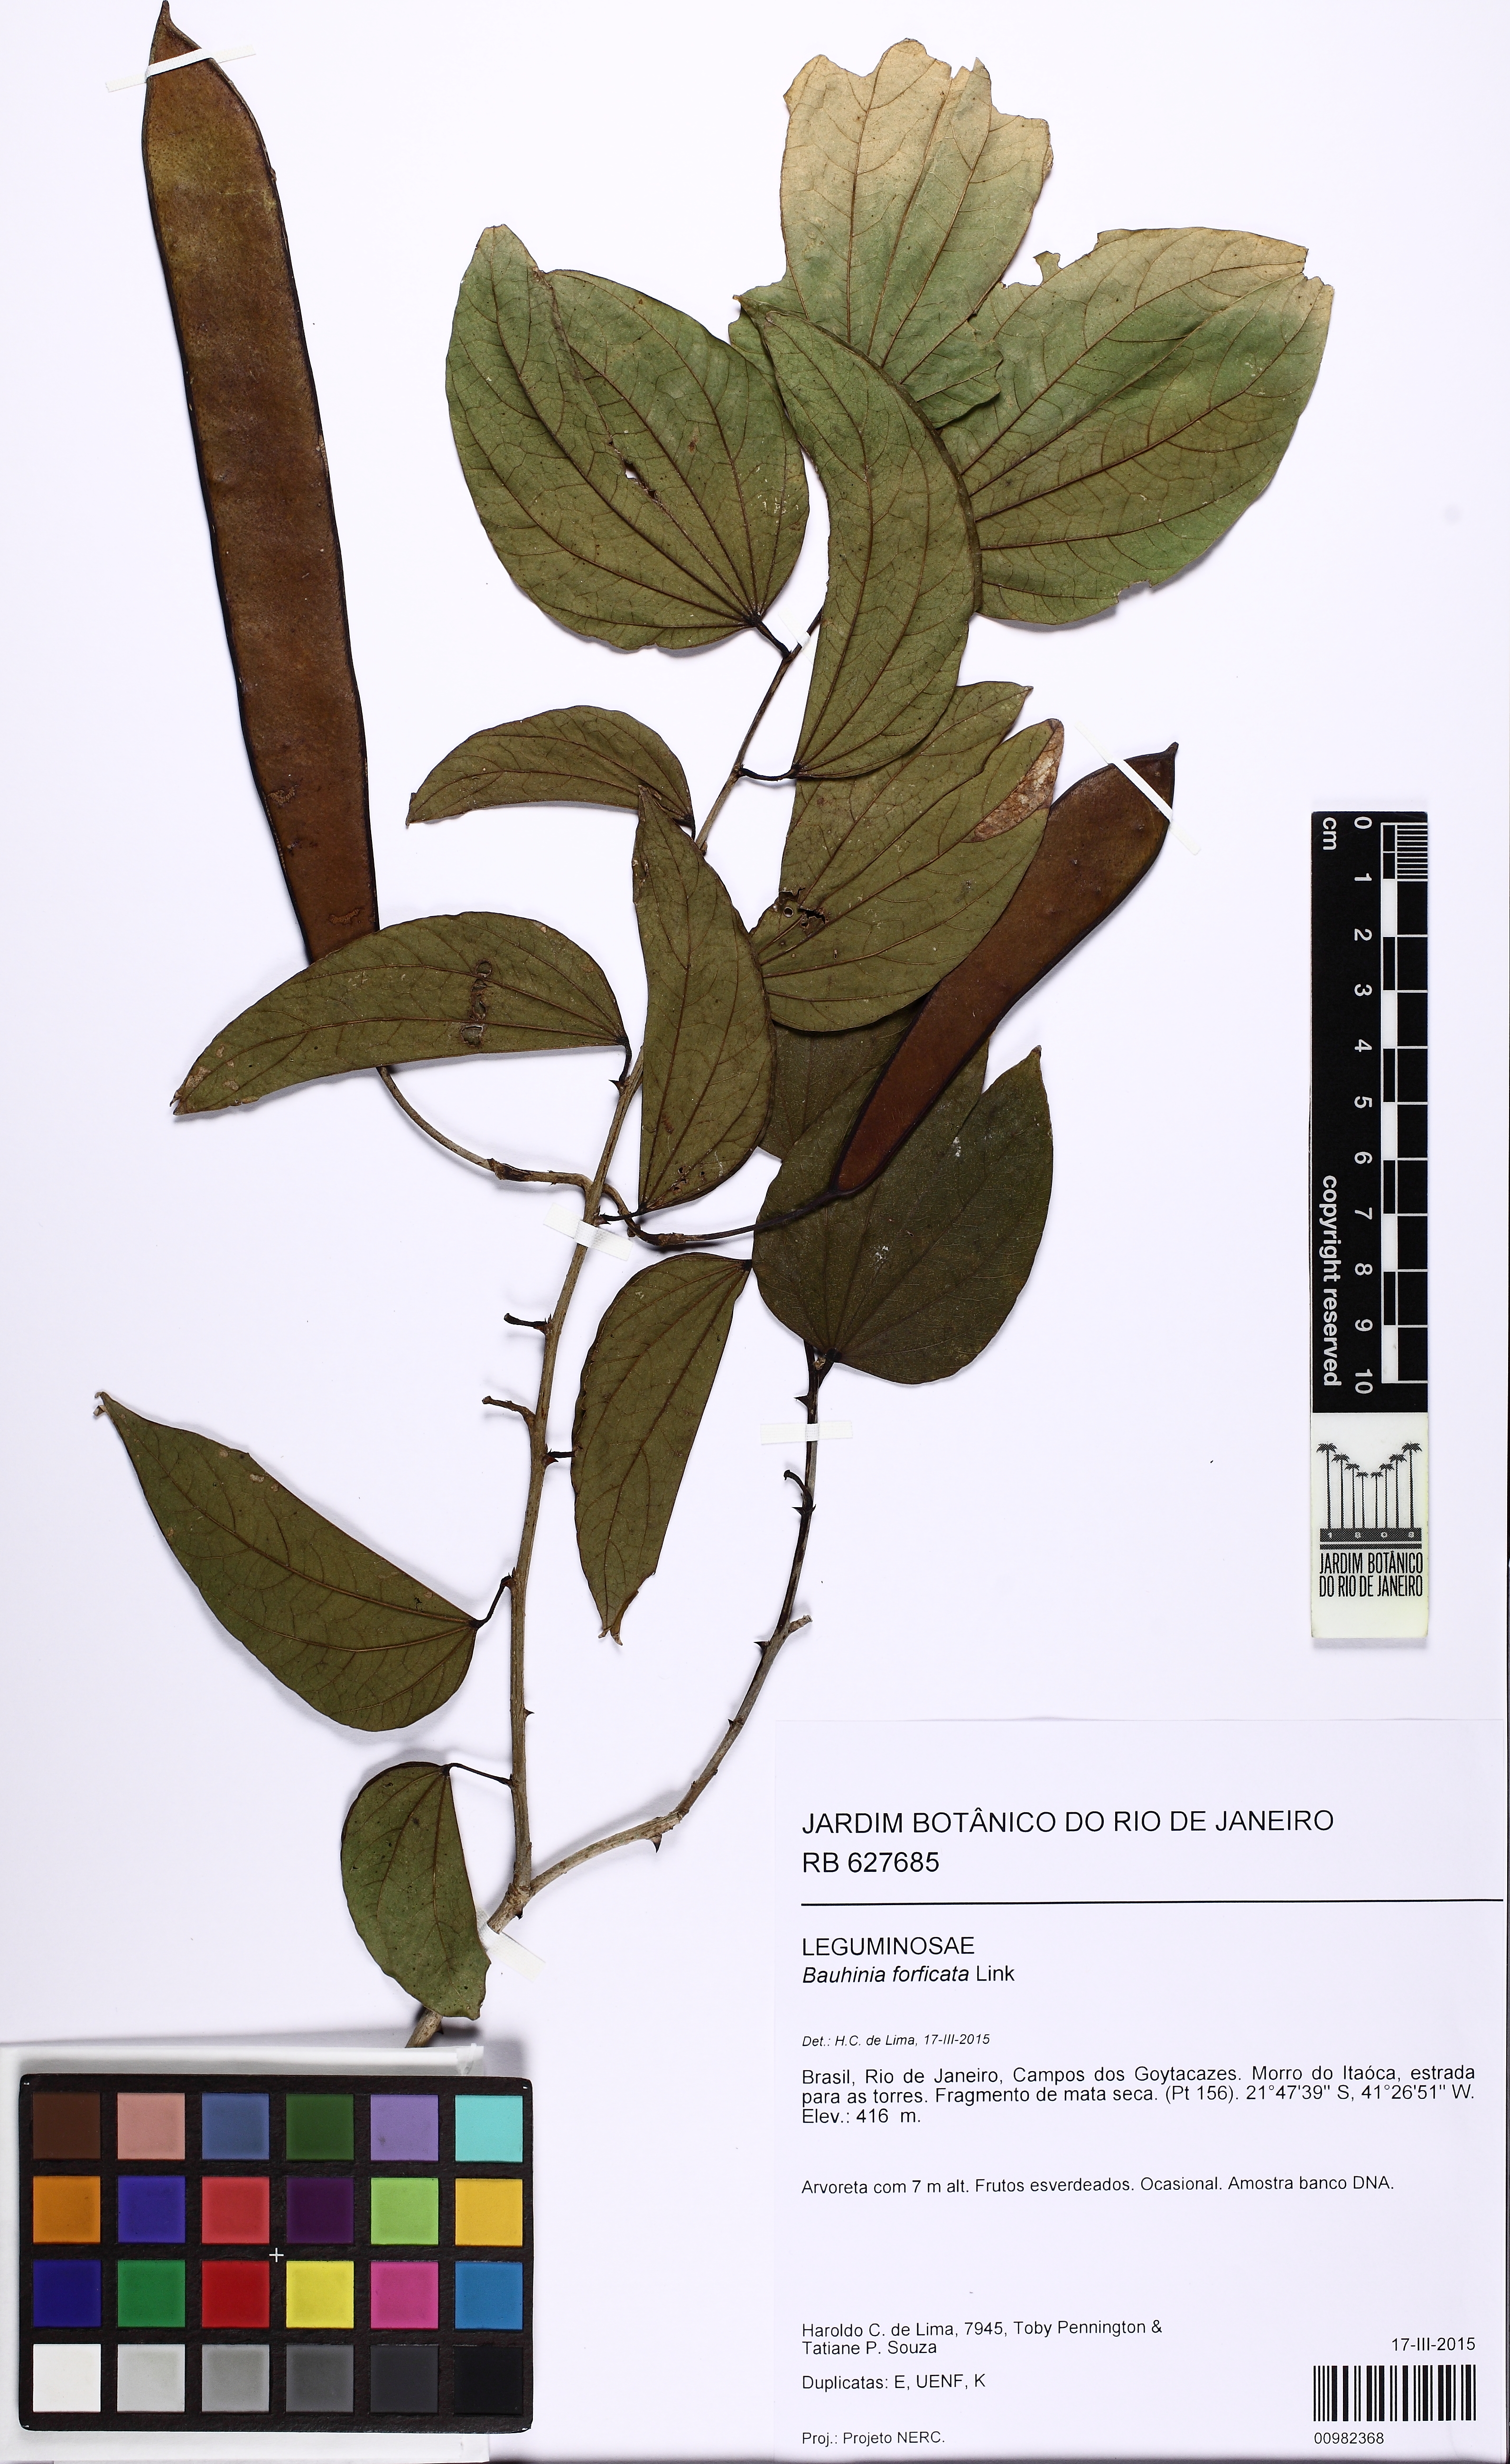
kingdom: Plantae
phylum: Tracheophyta
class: Magnoliopsida
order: Fabales
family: Fabaceae
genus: Bauhinia
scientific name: Bauhinia ovata
